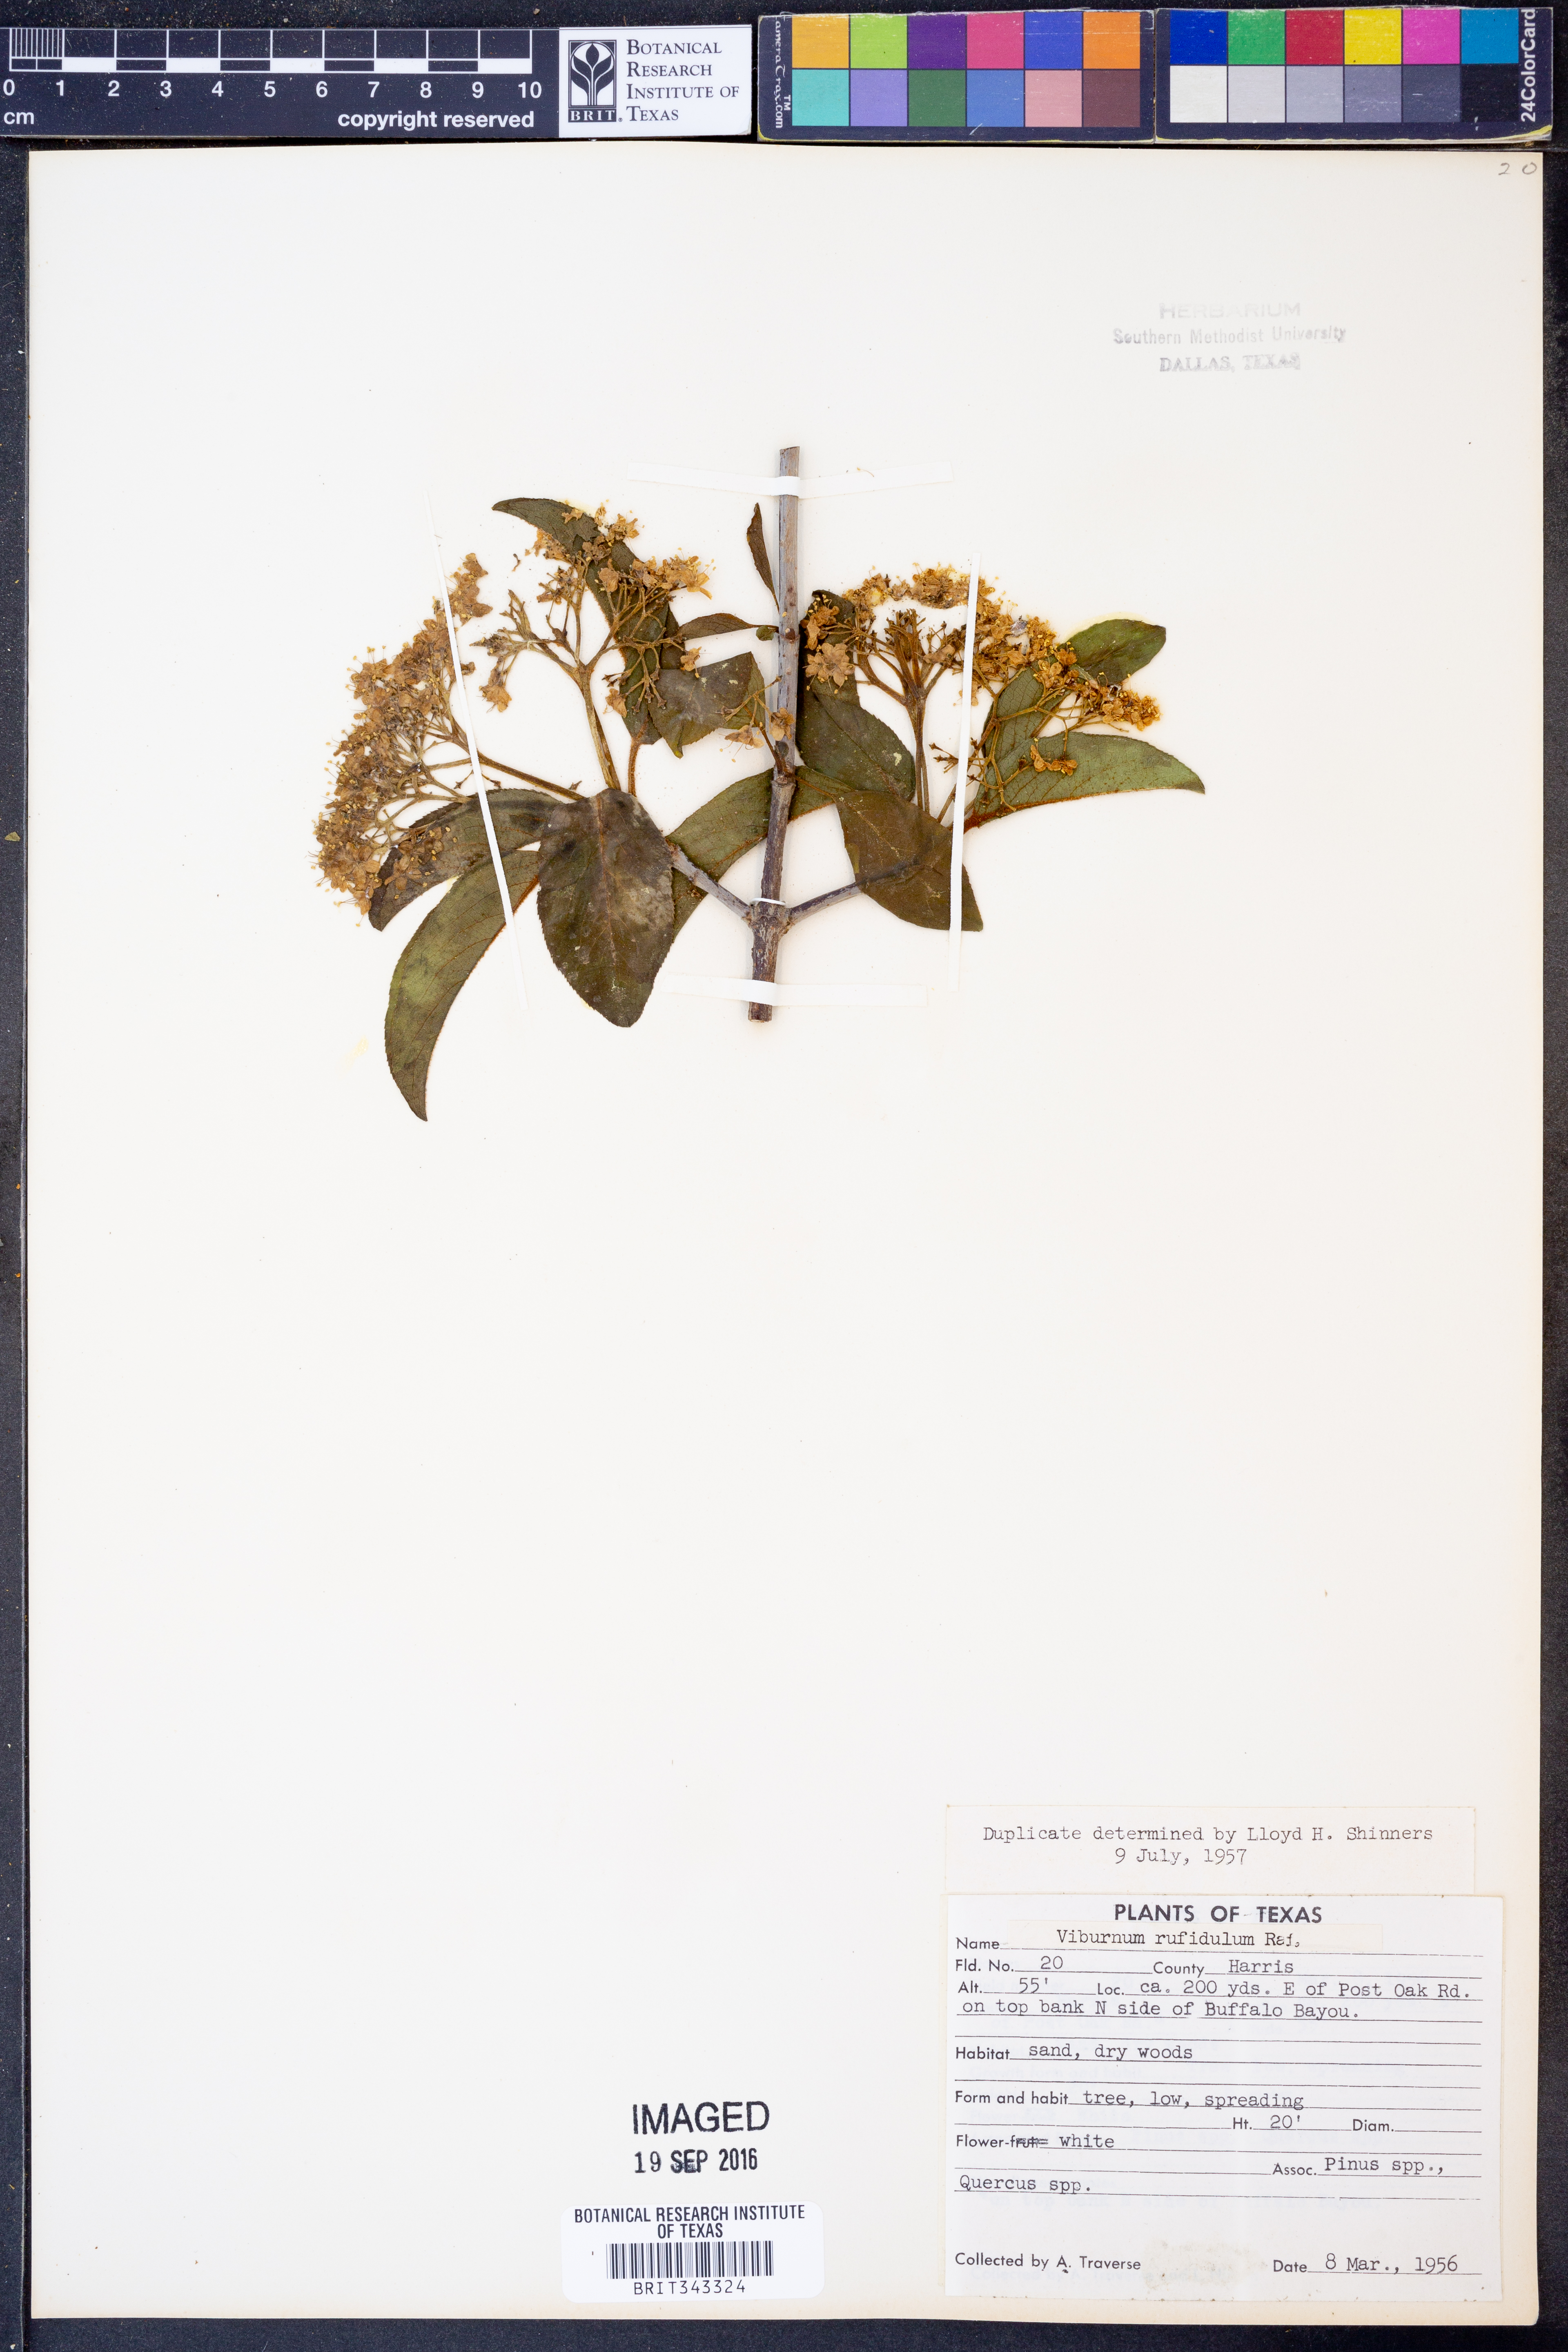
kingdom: Plantae
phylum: Tracheophyta
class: Magnoliopsida
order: Dipsacales
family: Viburnaceae
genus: Viburnum
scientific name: Viburnum rufidulum
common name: Blue haw
